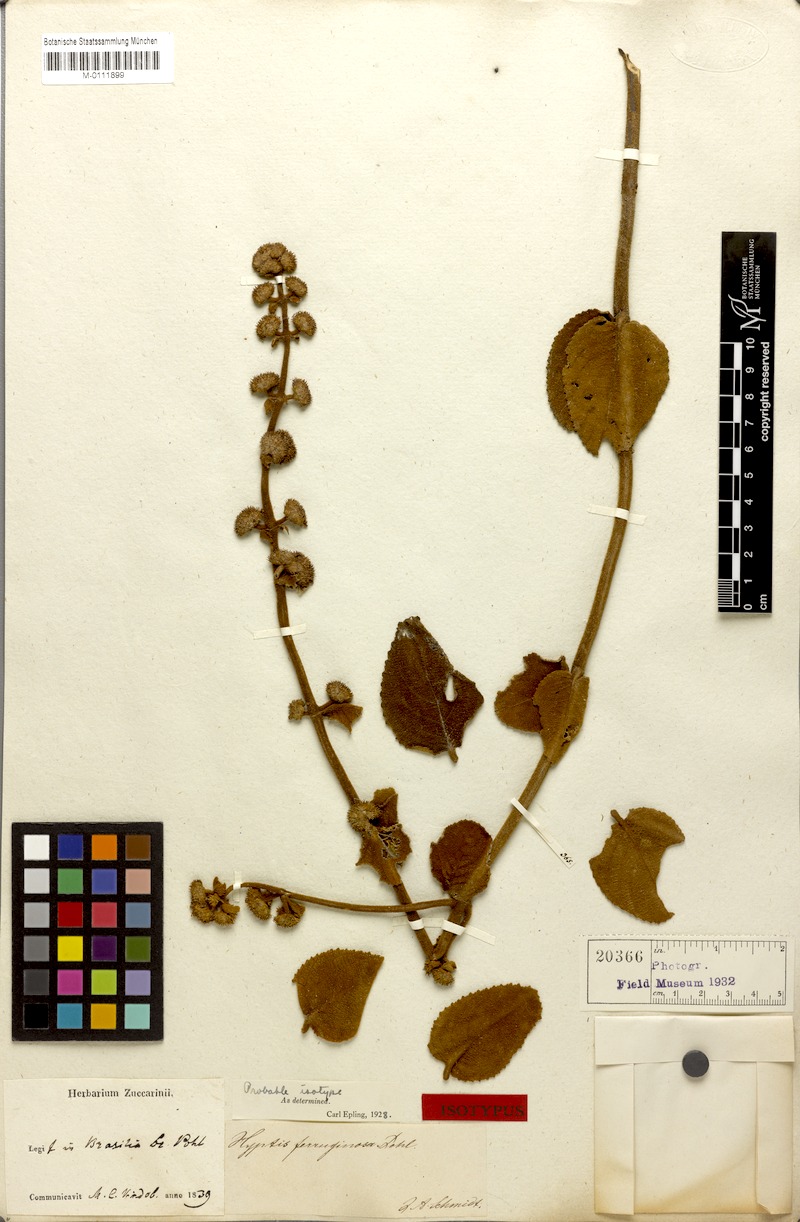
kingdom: Plantae
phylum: Tracheophyta
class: Magnoliopsida
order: Lamiales
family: Lamiaceae
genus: Hyptis
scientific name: Hyptis ferruginosa
